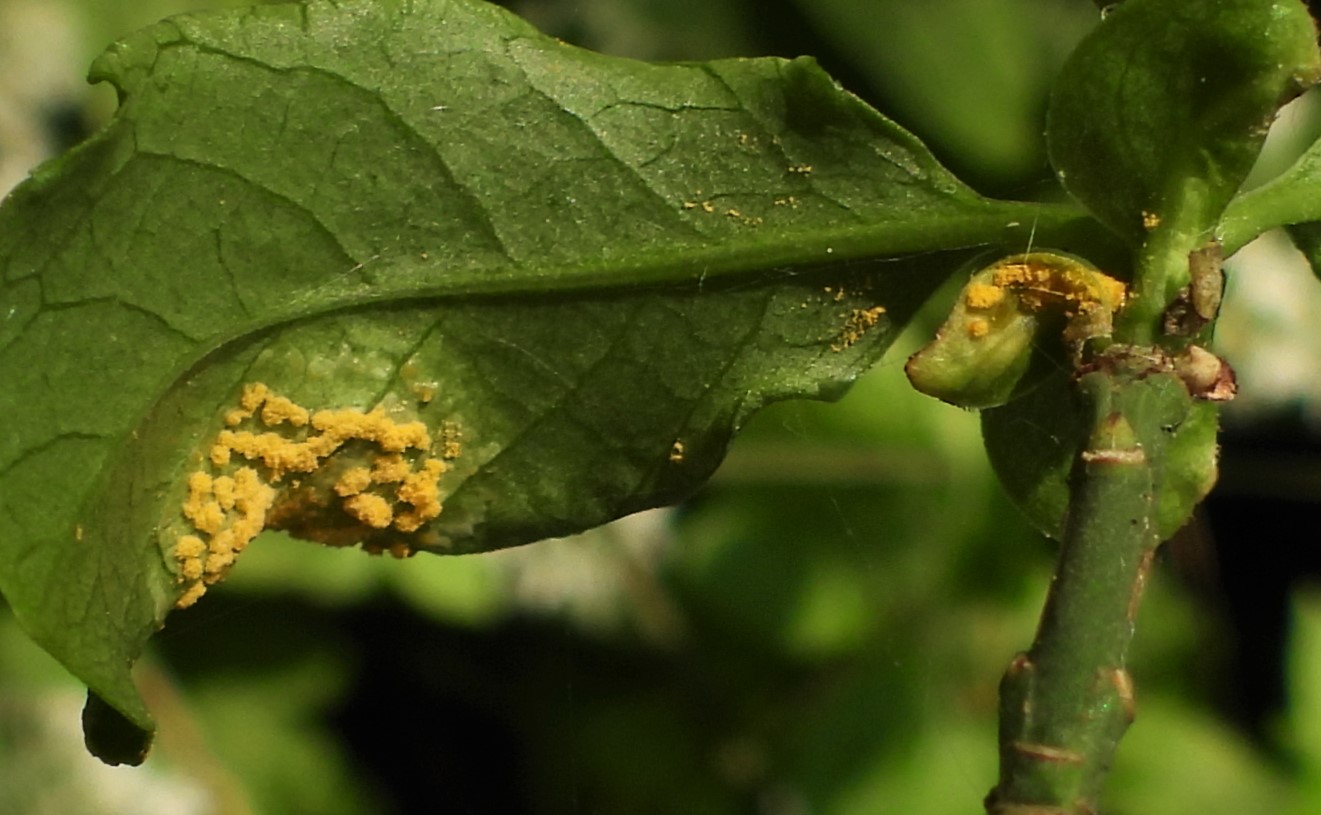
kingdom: Fungi
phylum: Basidiomycota
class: Pucciniomycetes
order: Pucciniales
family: Melampsoraceae
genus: Melampsora
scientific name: Melampsora epitea
